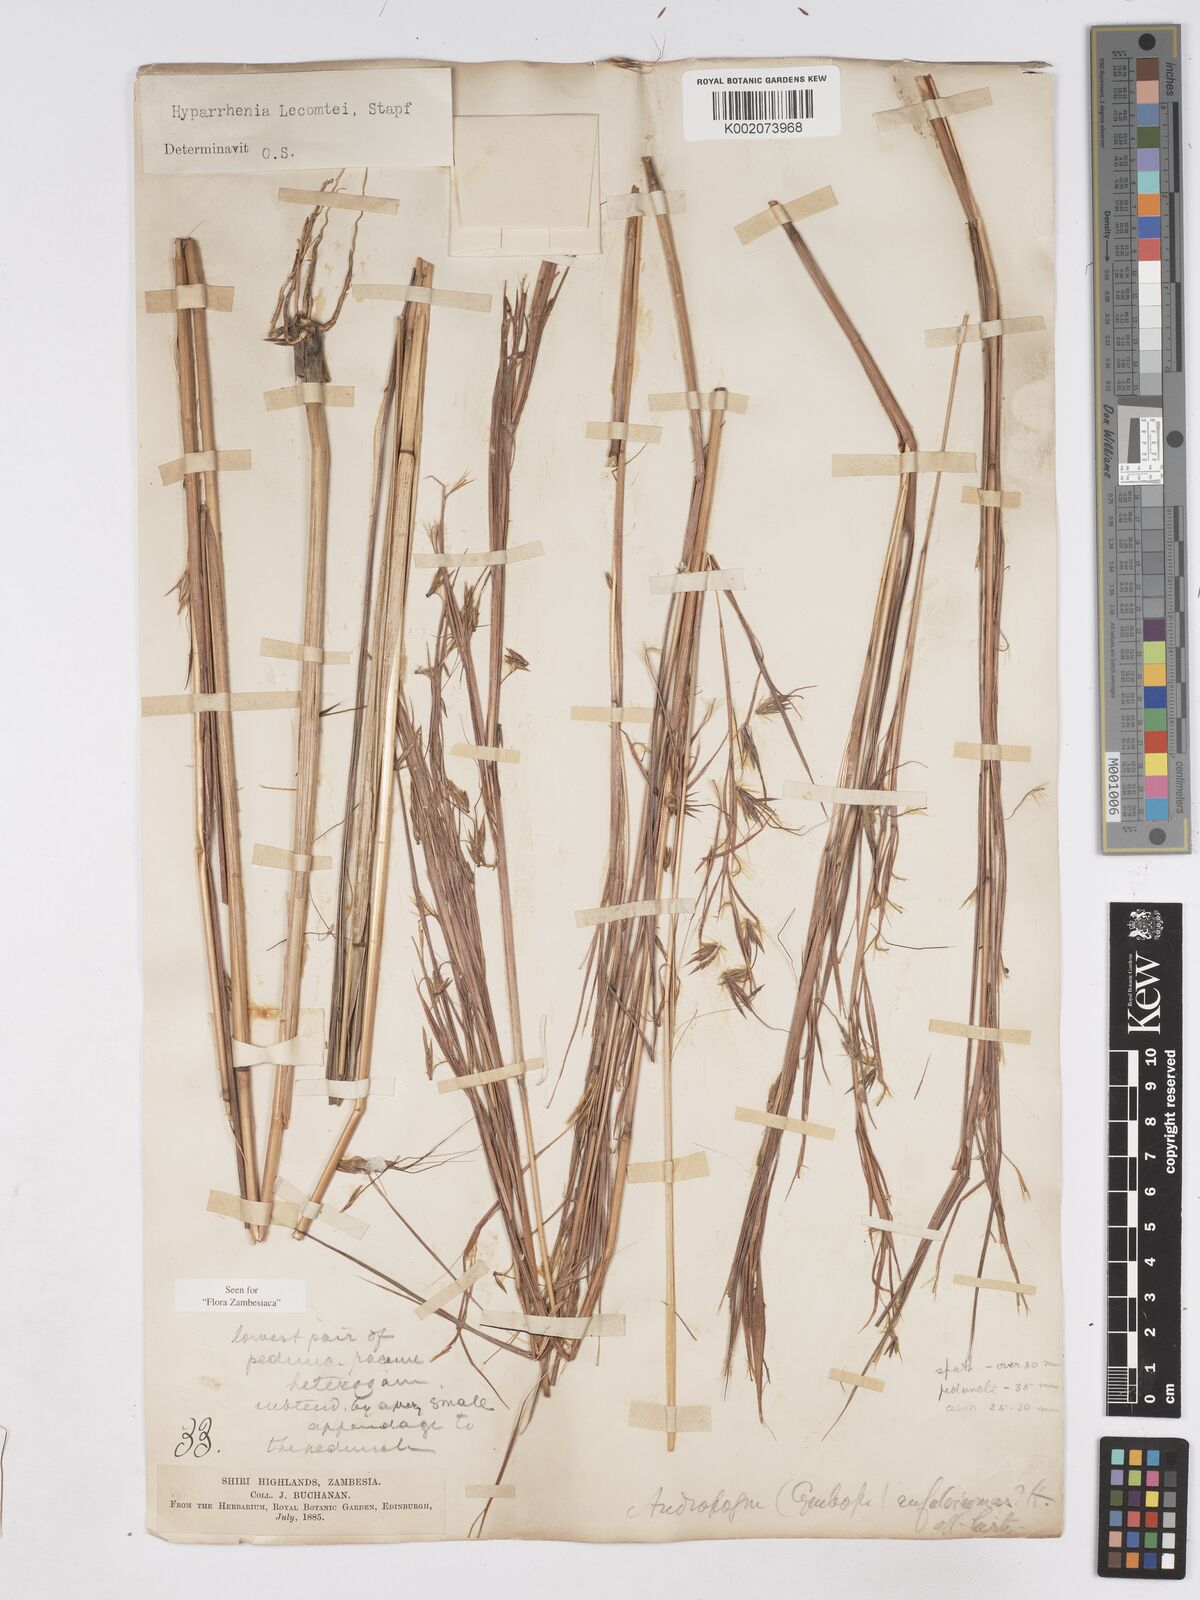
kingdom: Plantae
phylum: Tracheophyta
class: Liliopsida
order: Poales
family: Poaceae
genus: Hyparrhenia
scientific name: Hyparrhenia newtonii
